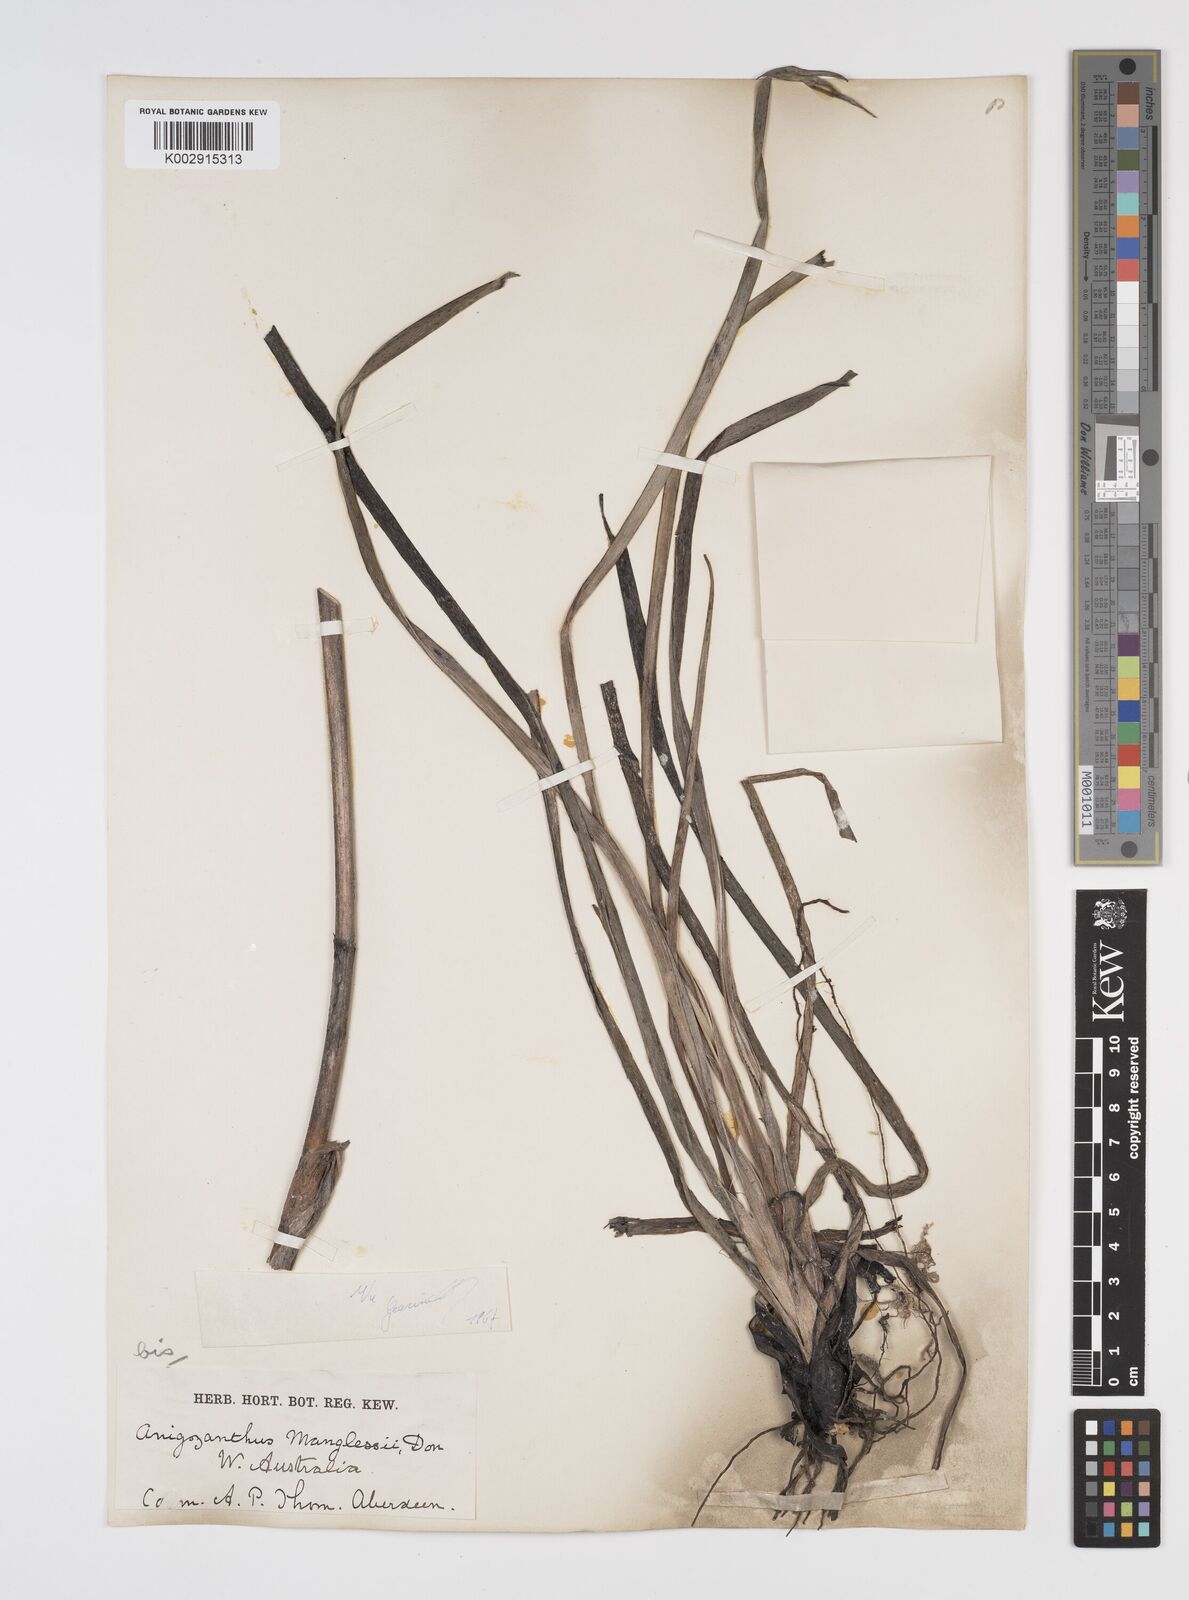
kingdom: Plantae
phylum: Tracheophyta
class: Liliopsida
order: Commelinales
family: Haemodoraceae
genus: Anigozanthos
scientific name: Anigozanthos manglesii
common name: Mangles's kangaroo-paw
